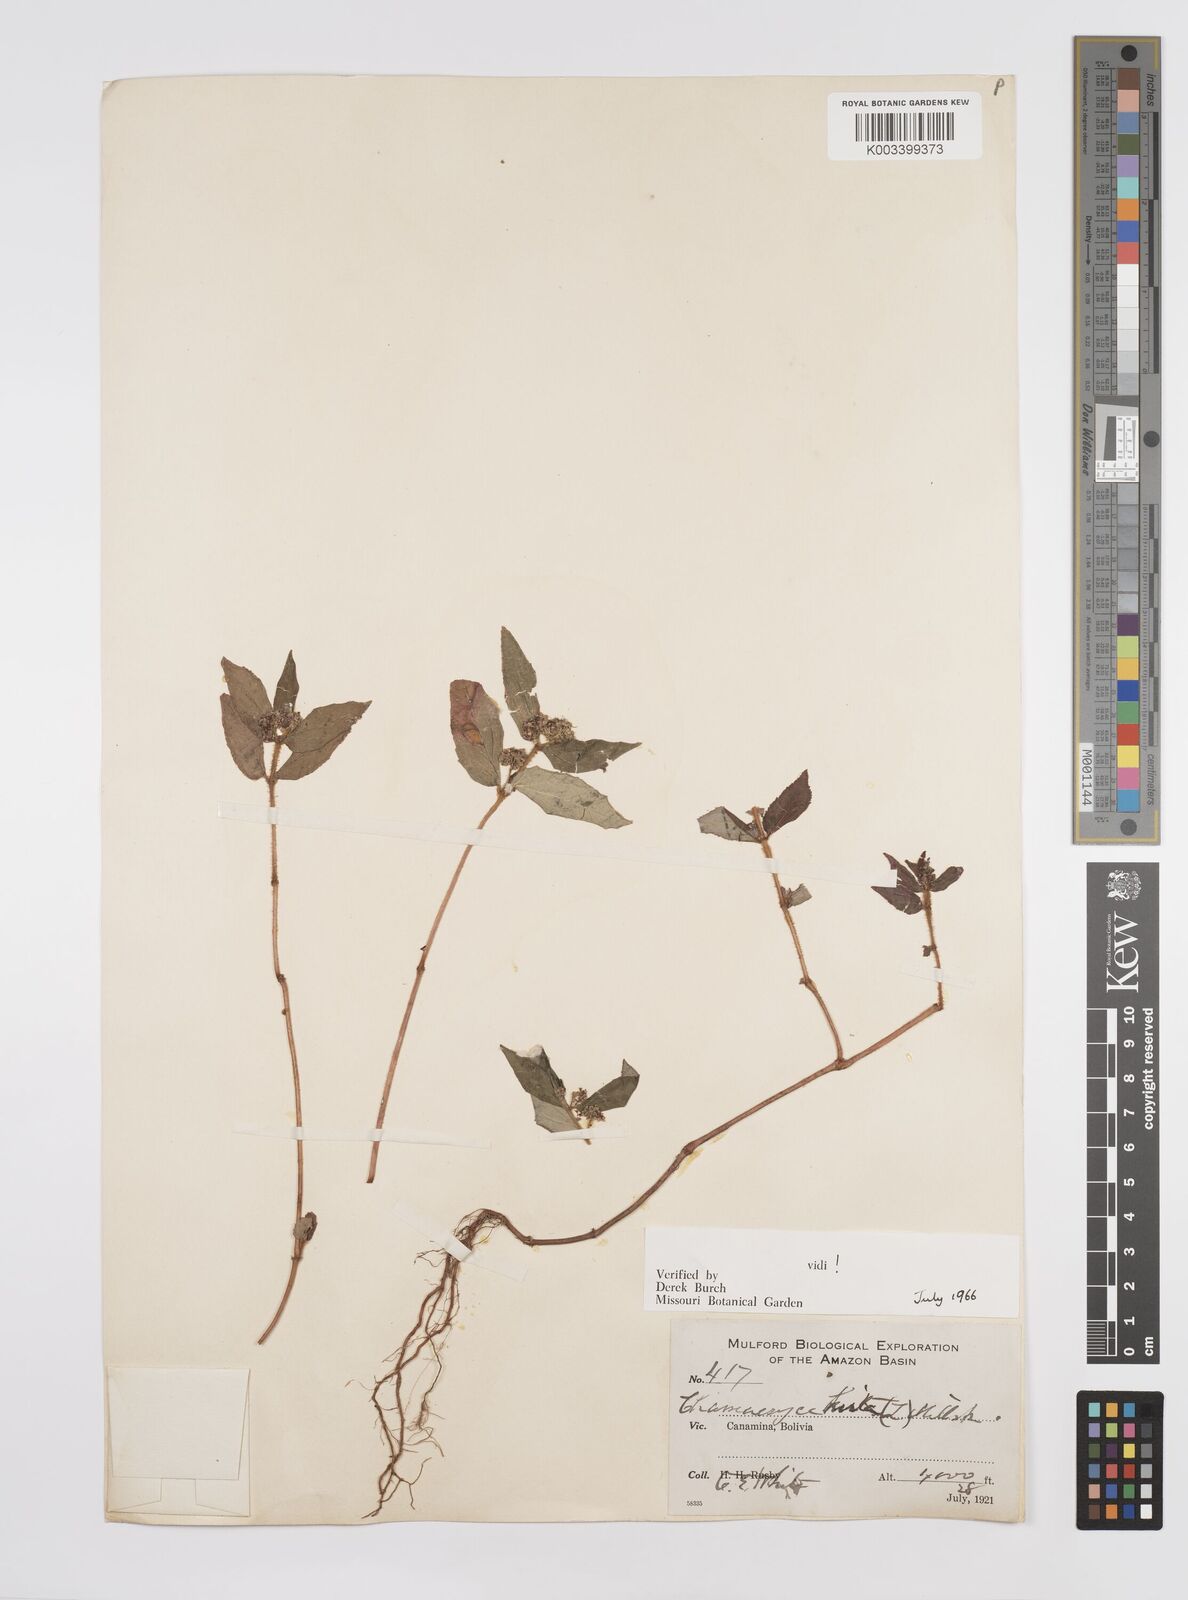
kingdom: Plantae
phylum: Tracheophyta
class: Magnoliopsida
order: Malpighiales
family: Euphorbiaceae
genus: Euphorbia
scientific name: Euphorbia hirta
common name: Pillpod sandmat
